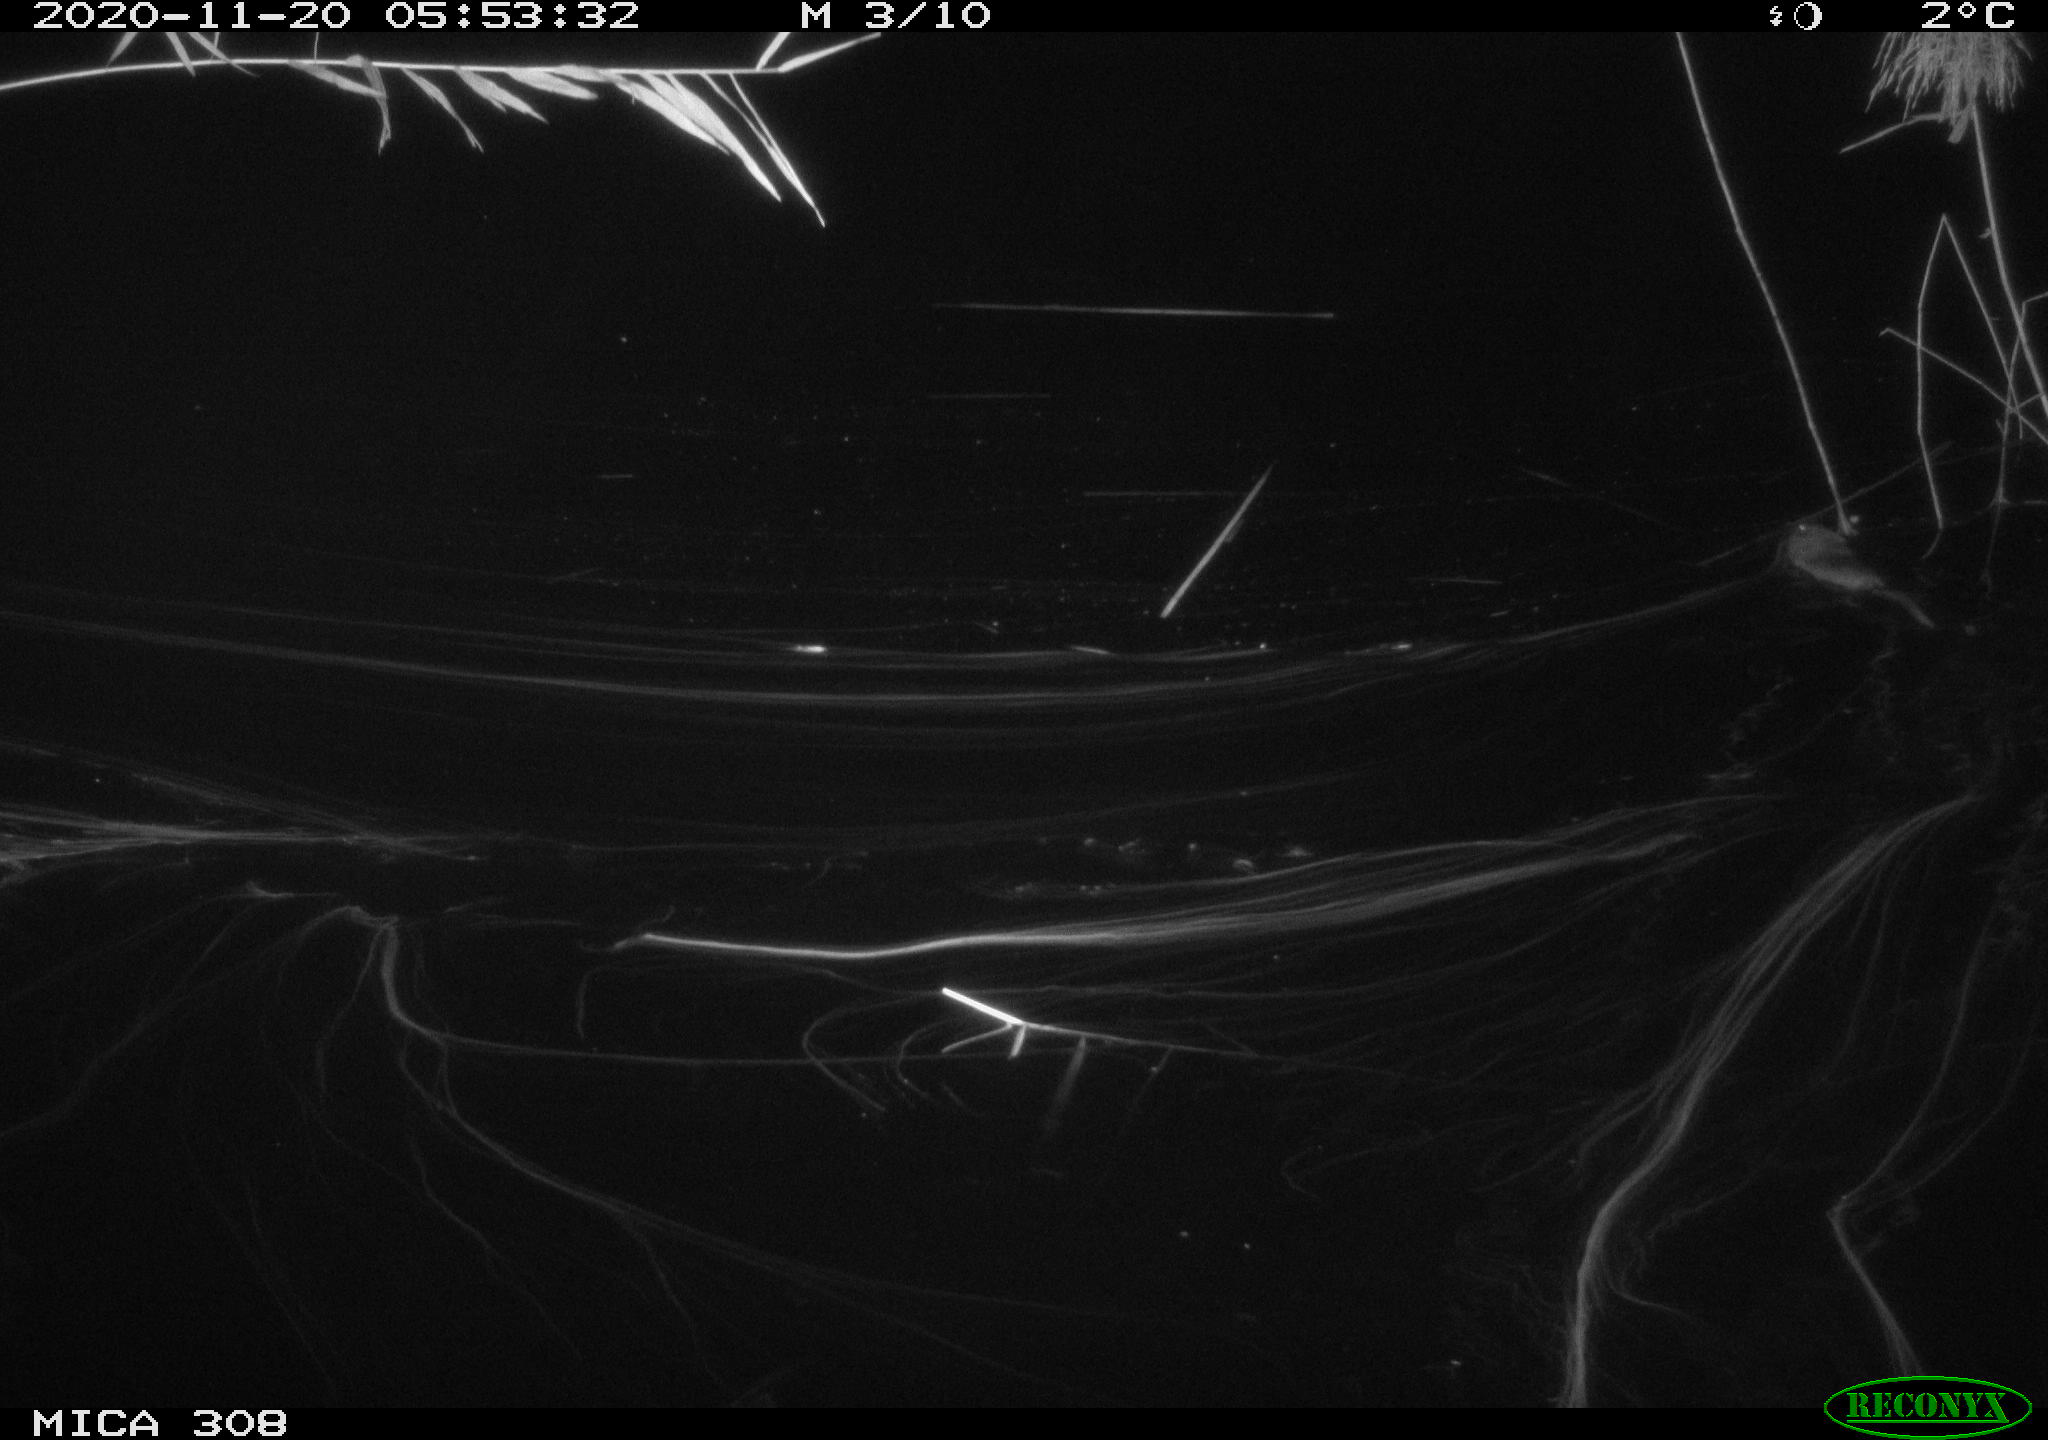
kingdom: Animalia
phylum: Chordata
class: Mammalia
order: Rodentia
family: Cricetidae
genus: Ondatra
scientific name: Ondatra zibethicus
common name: Muskrat
